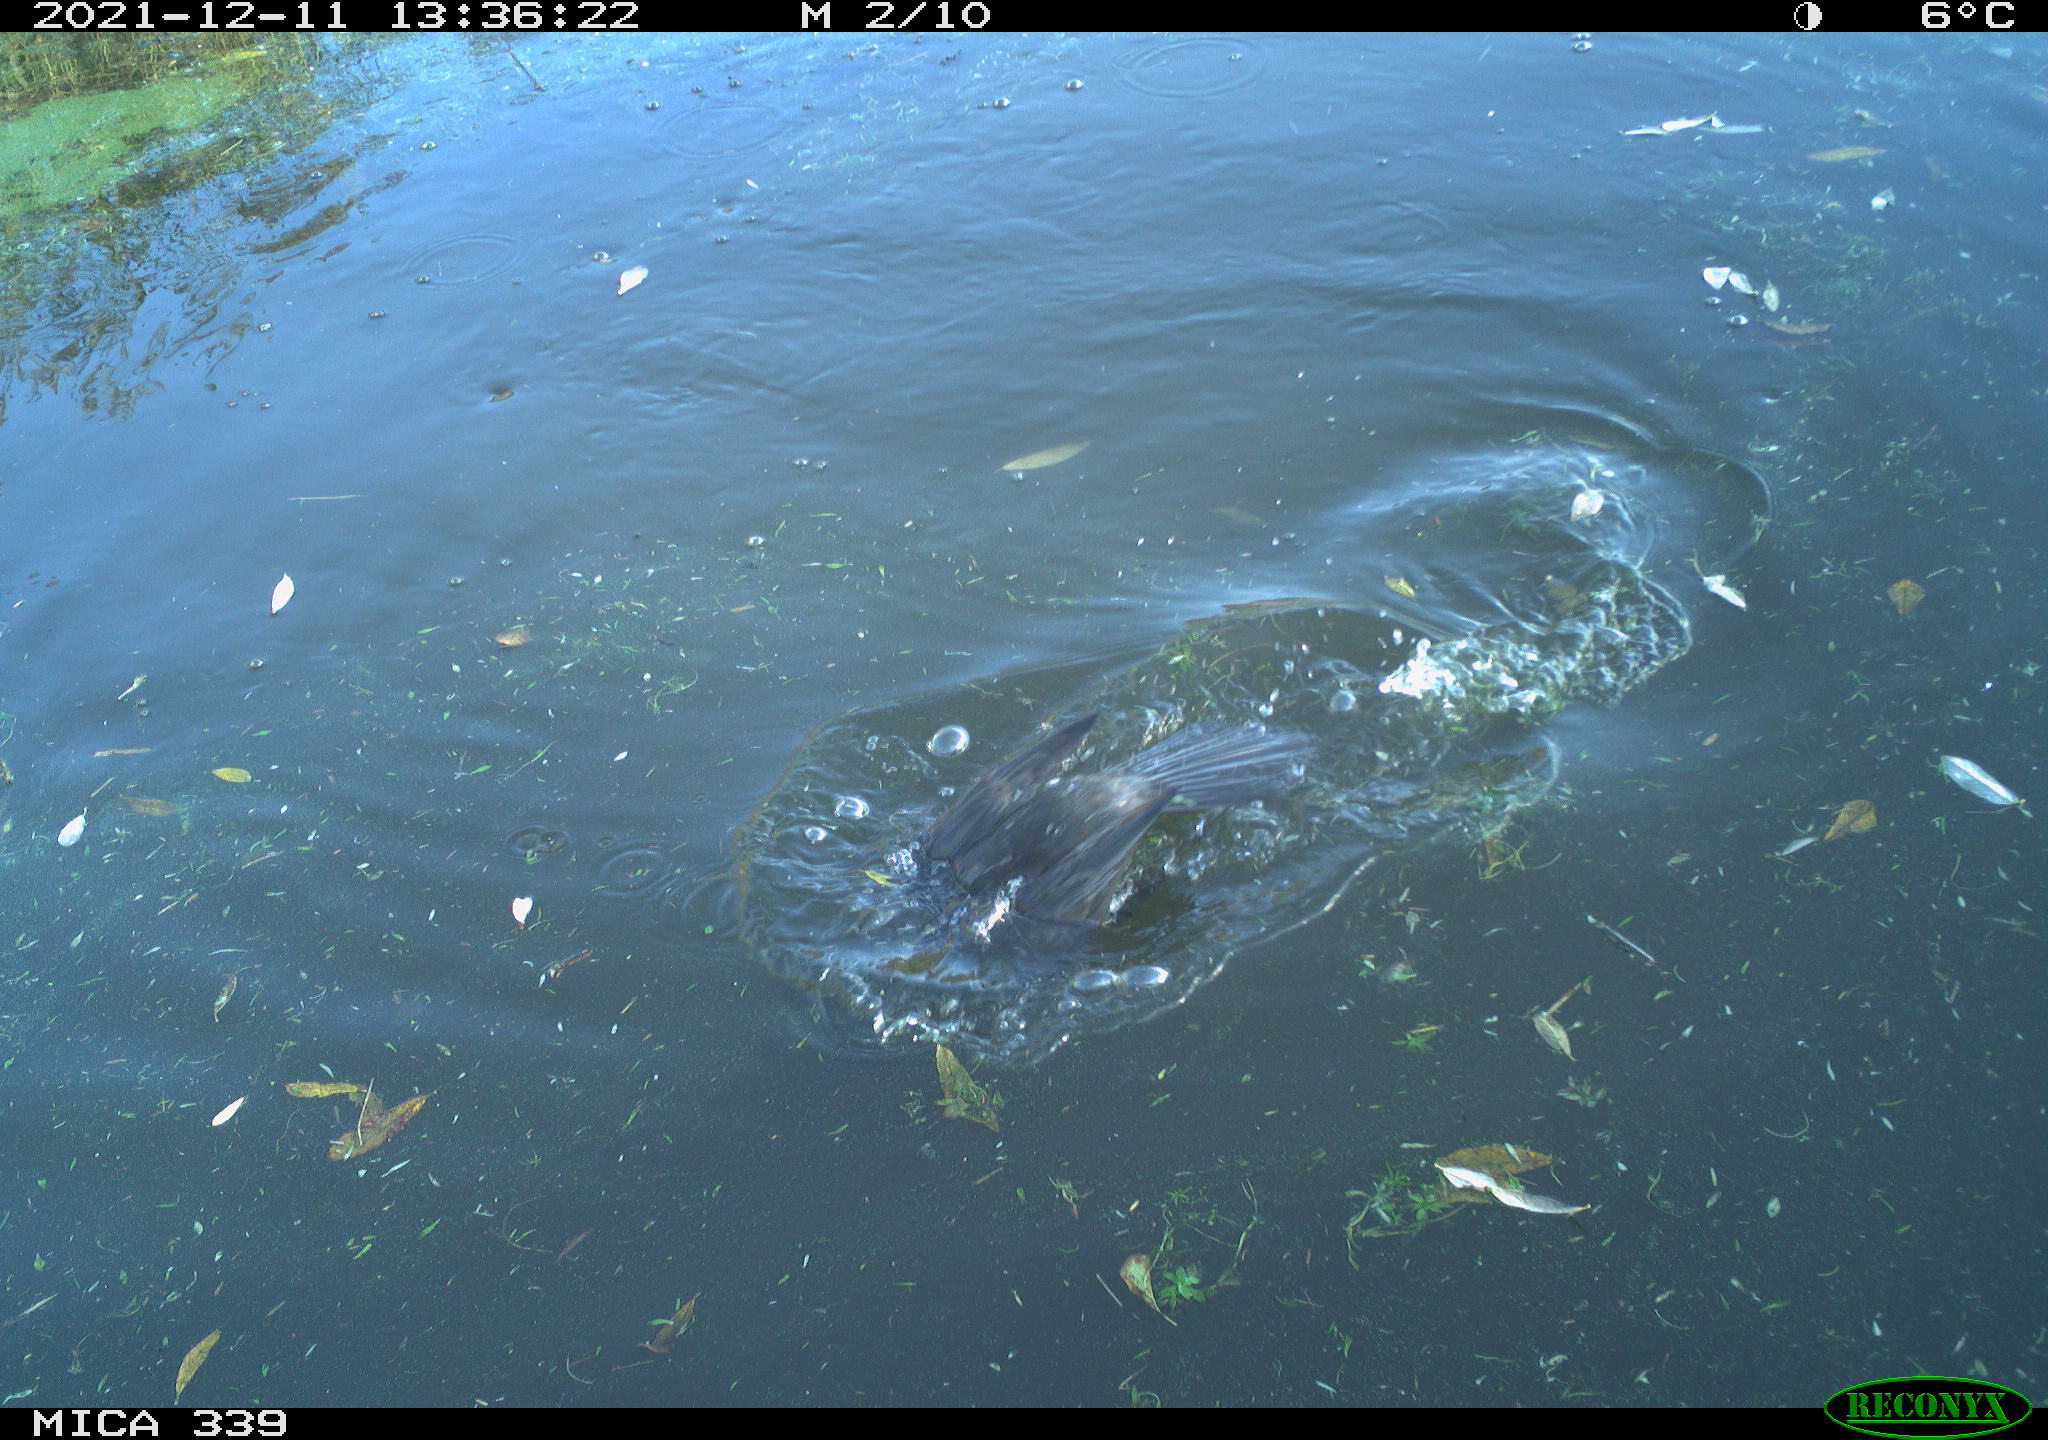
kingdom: Animalia
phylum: Chordata
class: Aves
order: Suliformes
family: Phalacrocoracidae
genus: Phalacrocorax
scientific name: Phalacrocorax carbo
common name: Great cormorant
